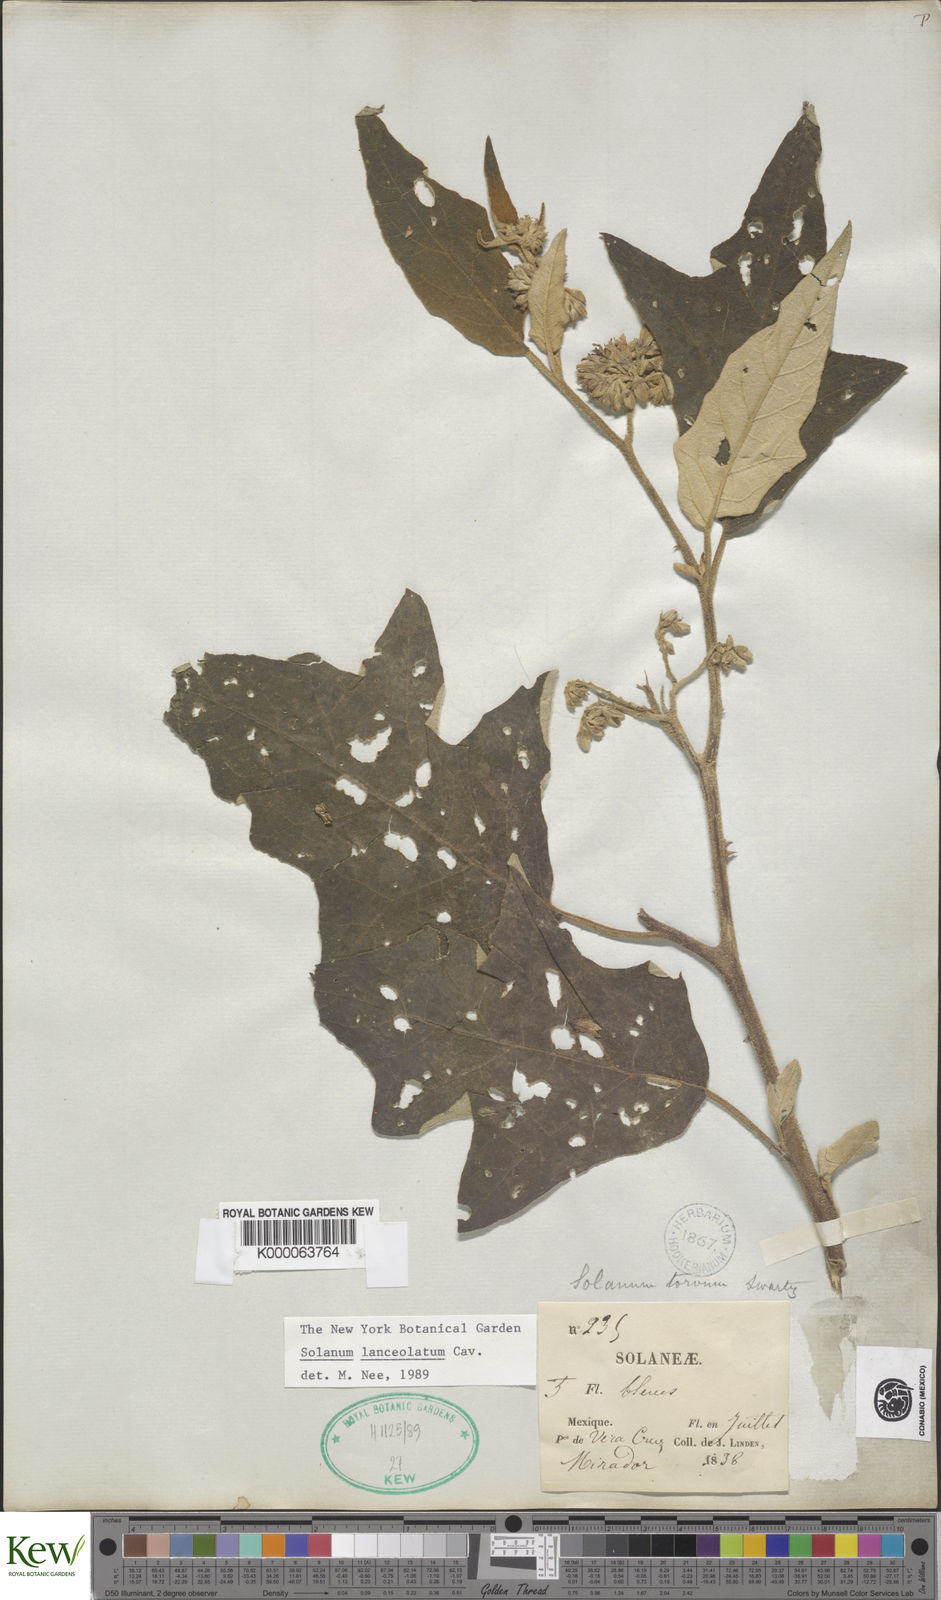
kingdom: Plantae
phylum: Tracheophyta
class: Magnoliopsida
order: Solanales
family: Solanaceae
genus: Solanum
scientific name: Solanum lanceolatum
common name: Orangeberry nightshade
